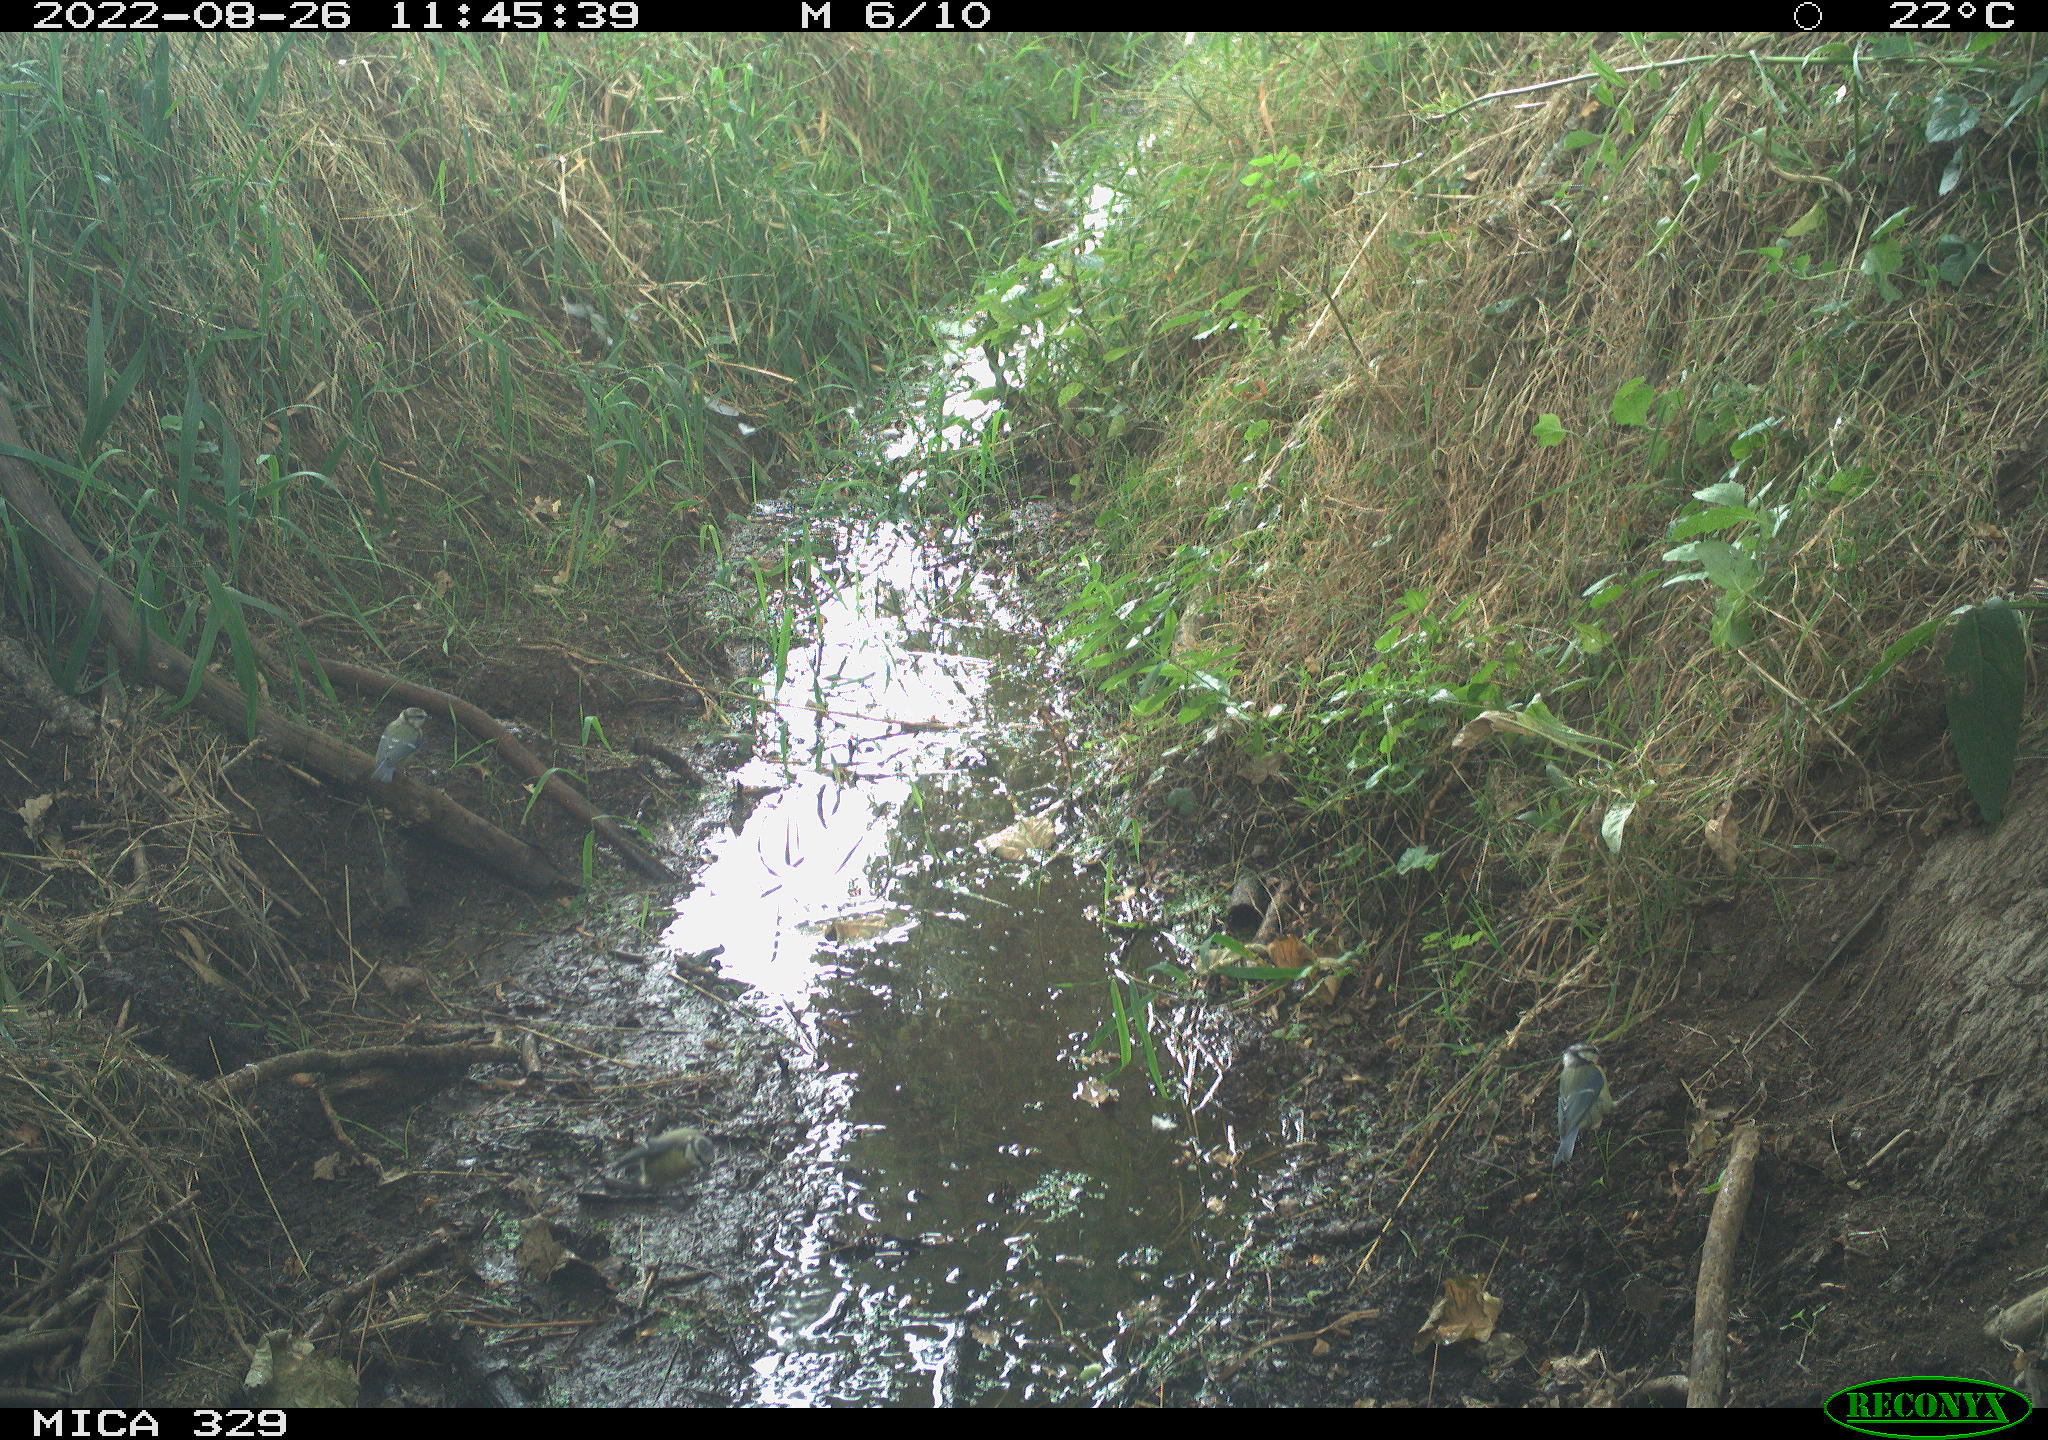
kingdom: Animalia
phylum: Chordata
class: Aves
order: Passeriformes
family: Paridae
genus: Cyanistes
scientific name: Cyanistes caeruleus
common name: Eurasian blue tit
